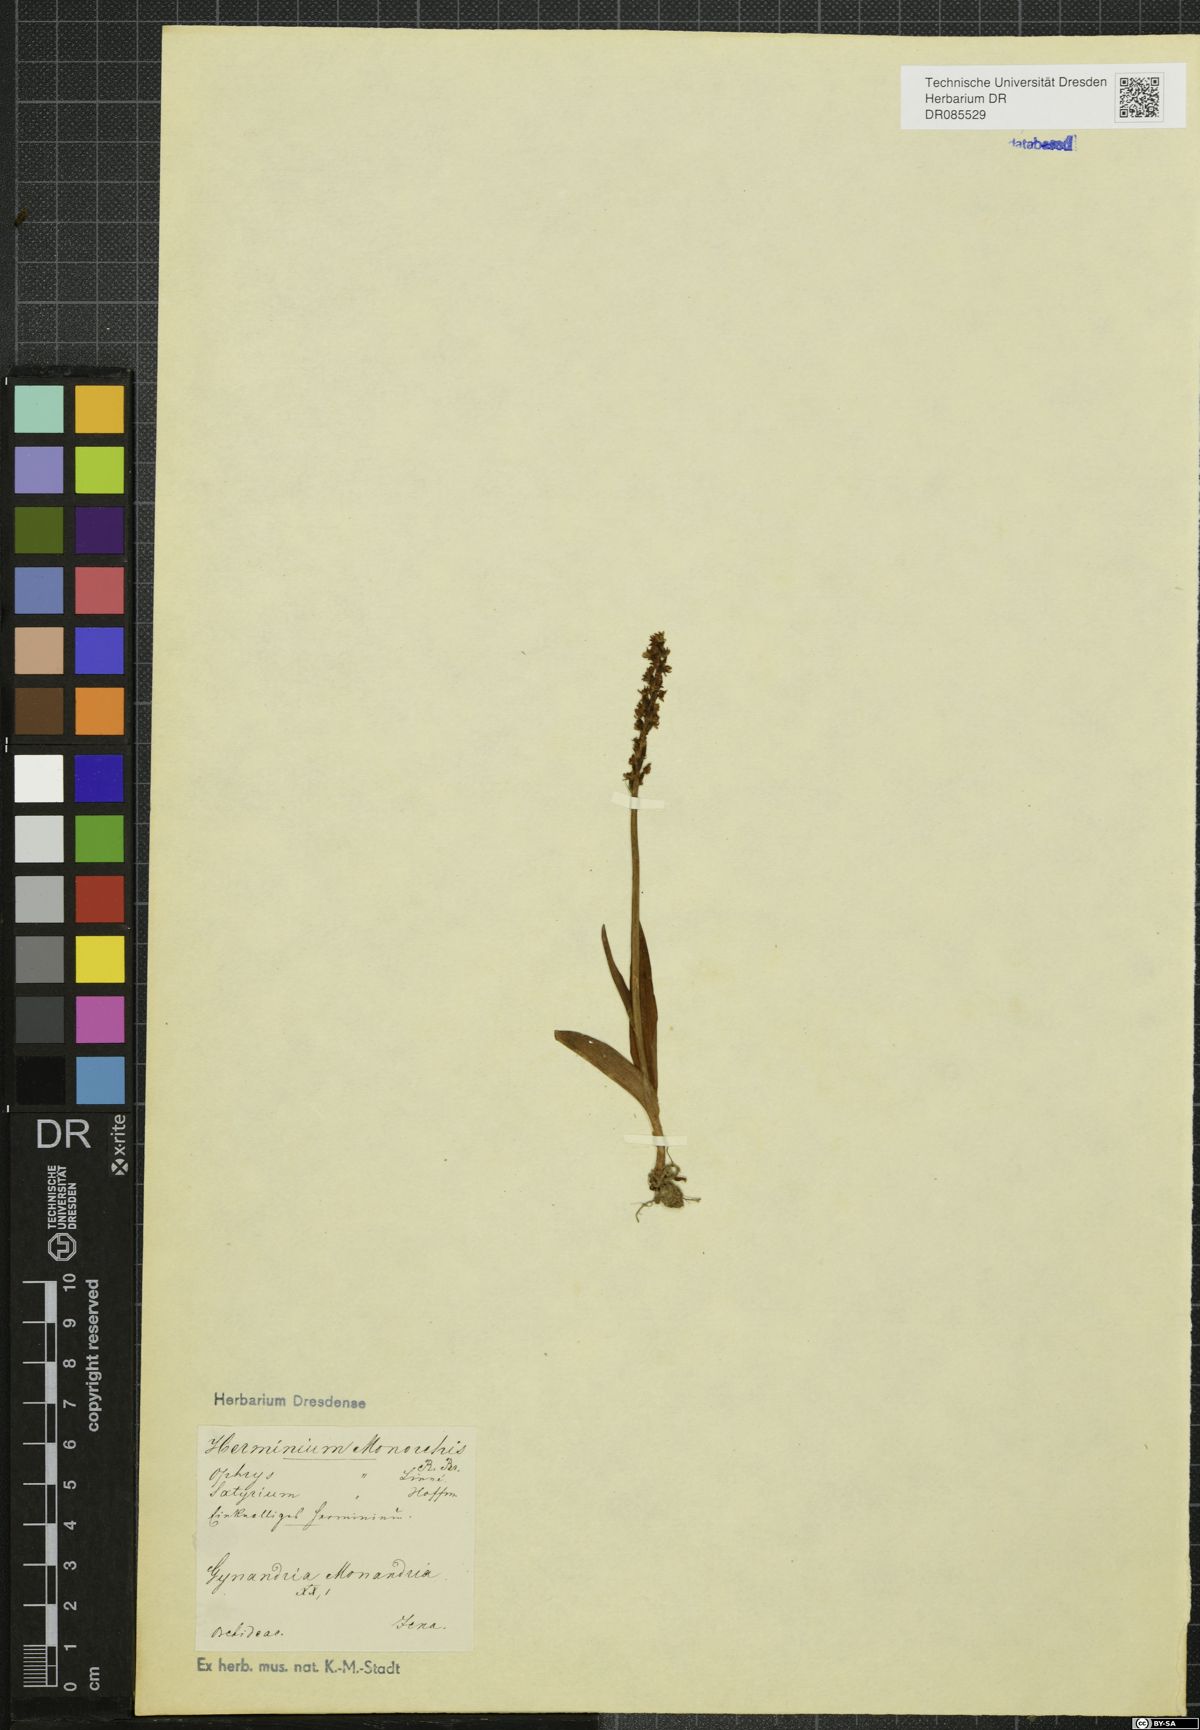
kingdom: Plantae
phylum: Tracheophyta
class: Liliopsida
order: Asparagales
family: Orchidaceae
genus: Herminium
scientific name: Herminium monorchis
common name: Musk orchid
